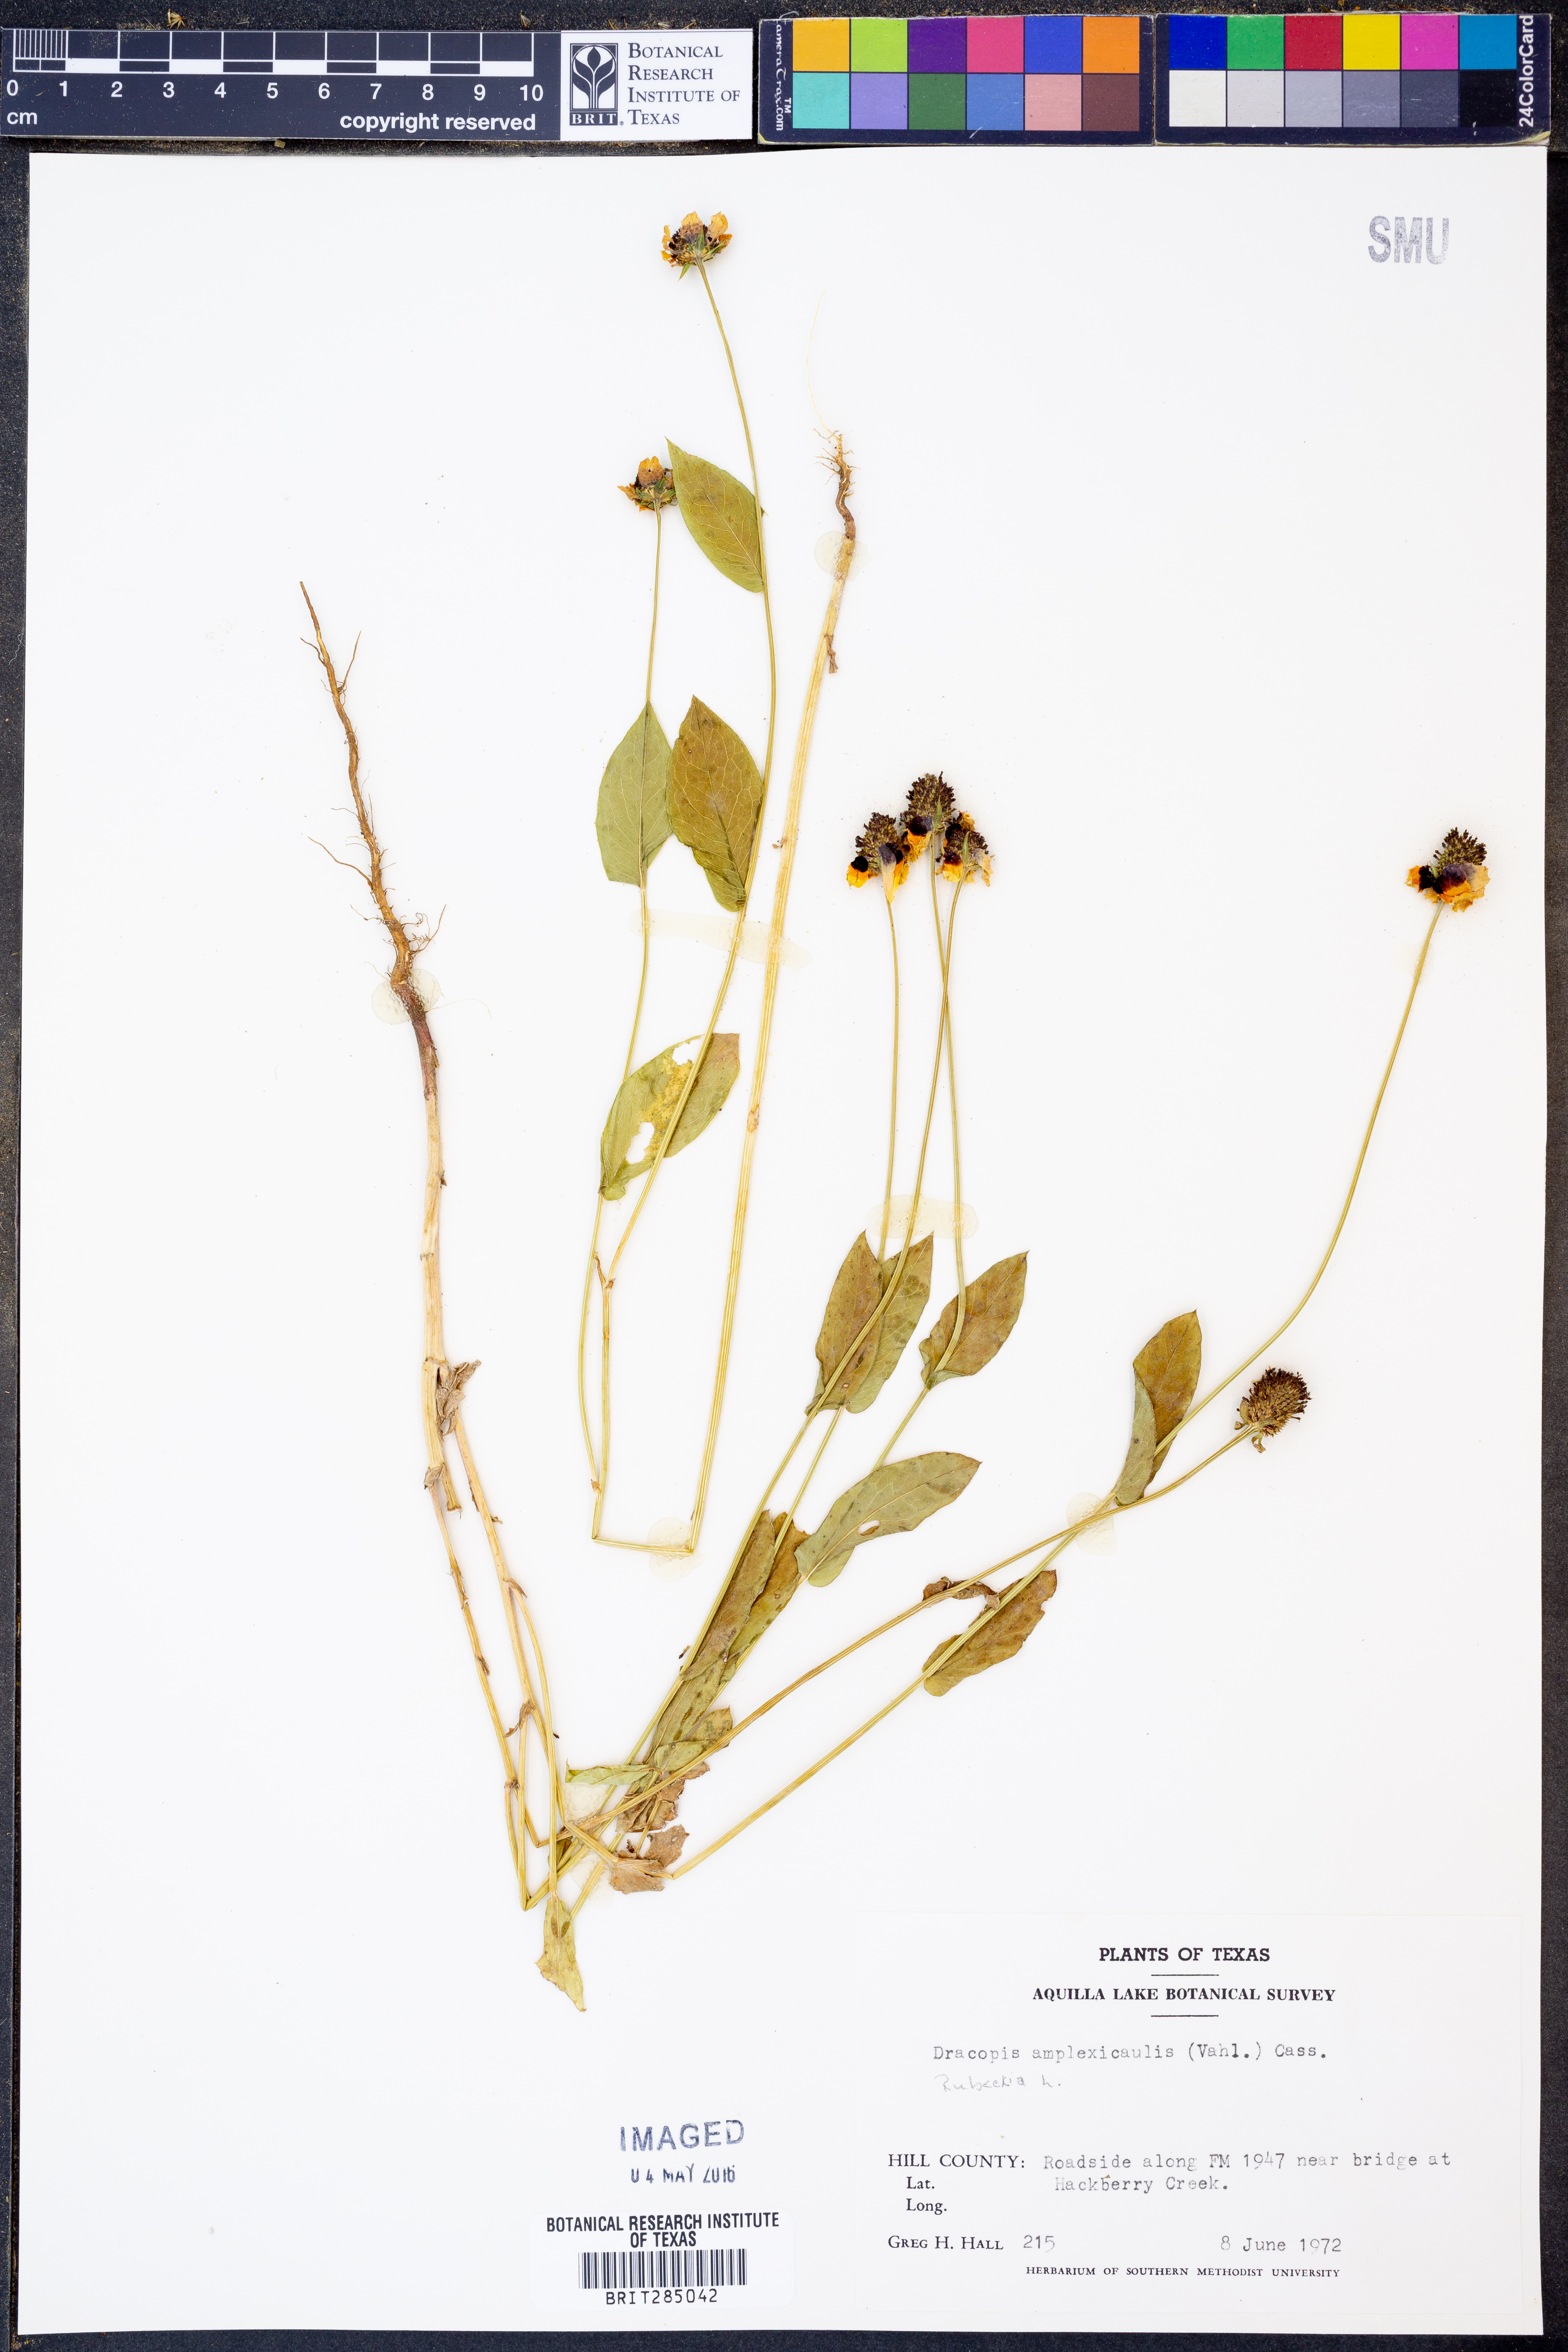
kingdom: Plantae
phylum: Tracheophyta
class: Magnoliopsida
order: Asterales
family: Asteraceae
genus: Rudbeckia
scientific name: Rudbeckia amplexicaulis
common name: Clasping-leaf coneflower
